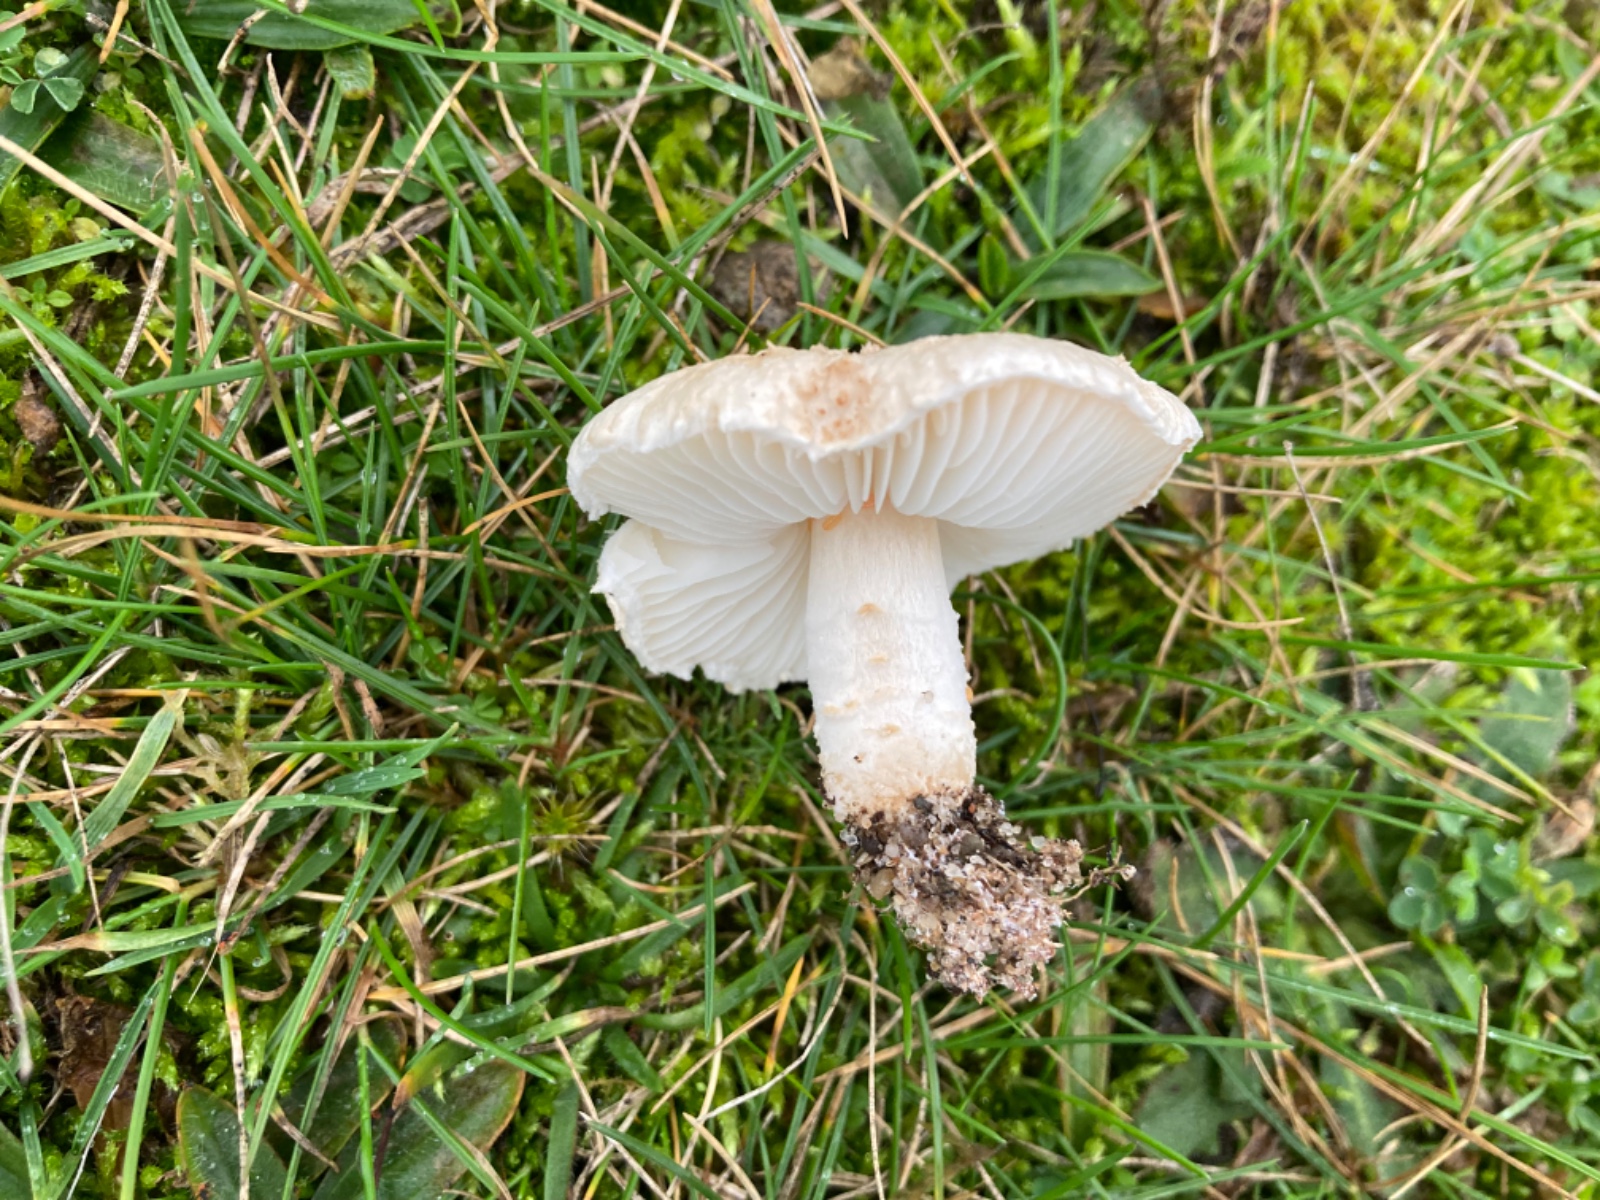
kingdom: Fungi
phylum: Basidiomycota
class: Agaricomycetes
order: Agaricales
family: Agaricaceae
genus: Lepiota
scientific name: Lepiota erminea
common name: hvid parasolhat
